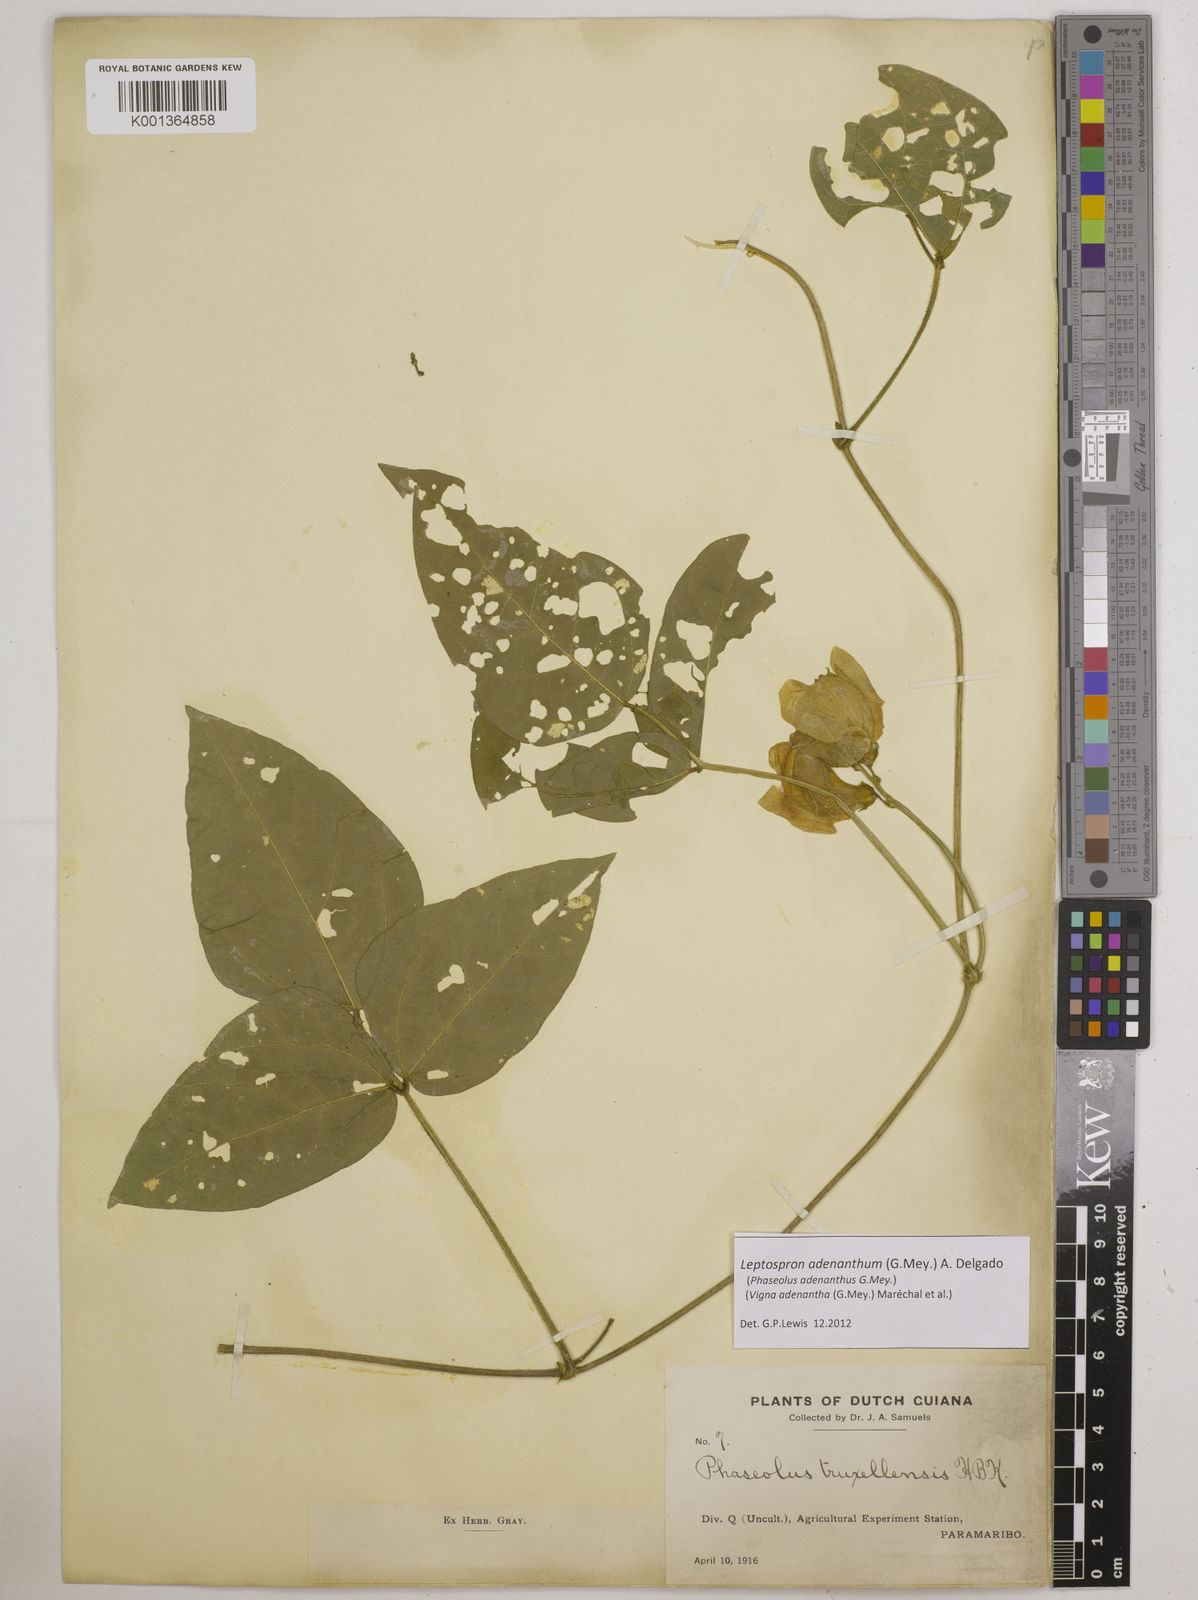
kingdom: Plantae
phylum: Tracheophyta
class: Magnoliopsida
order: Fabales
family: Fabaceae
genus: Leptospron
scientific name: Leptospron adenanthum
